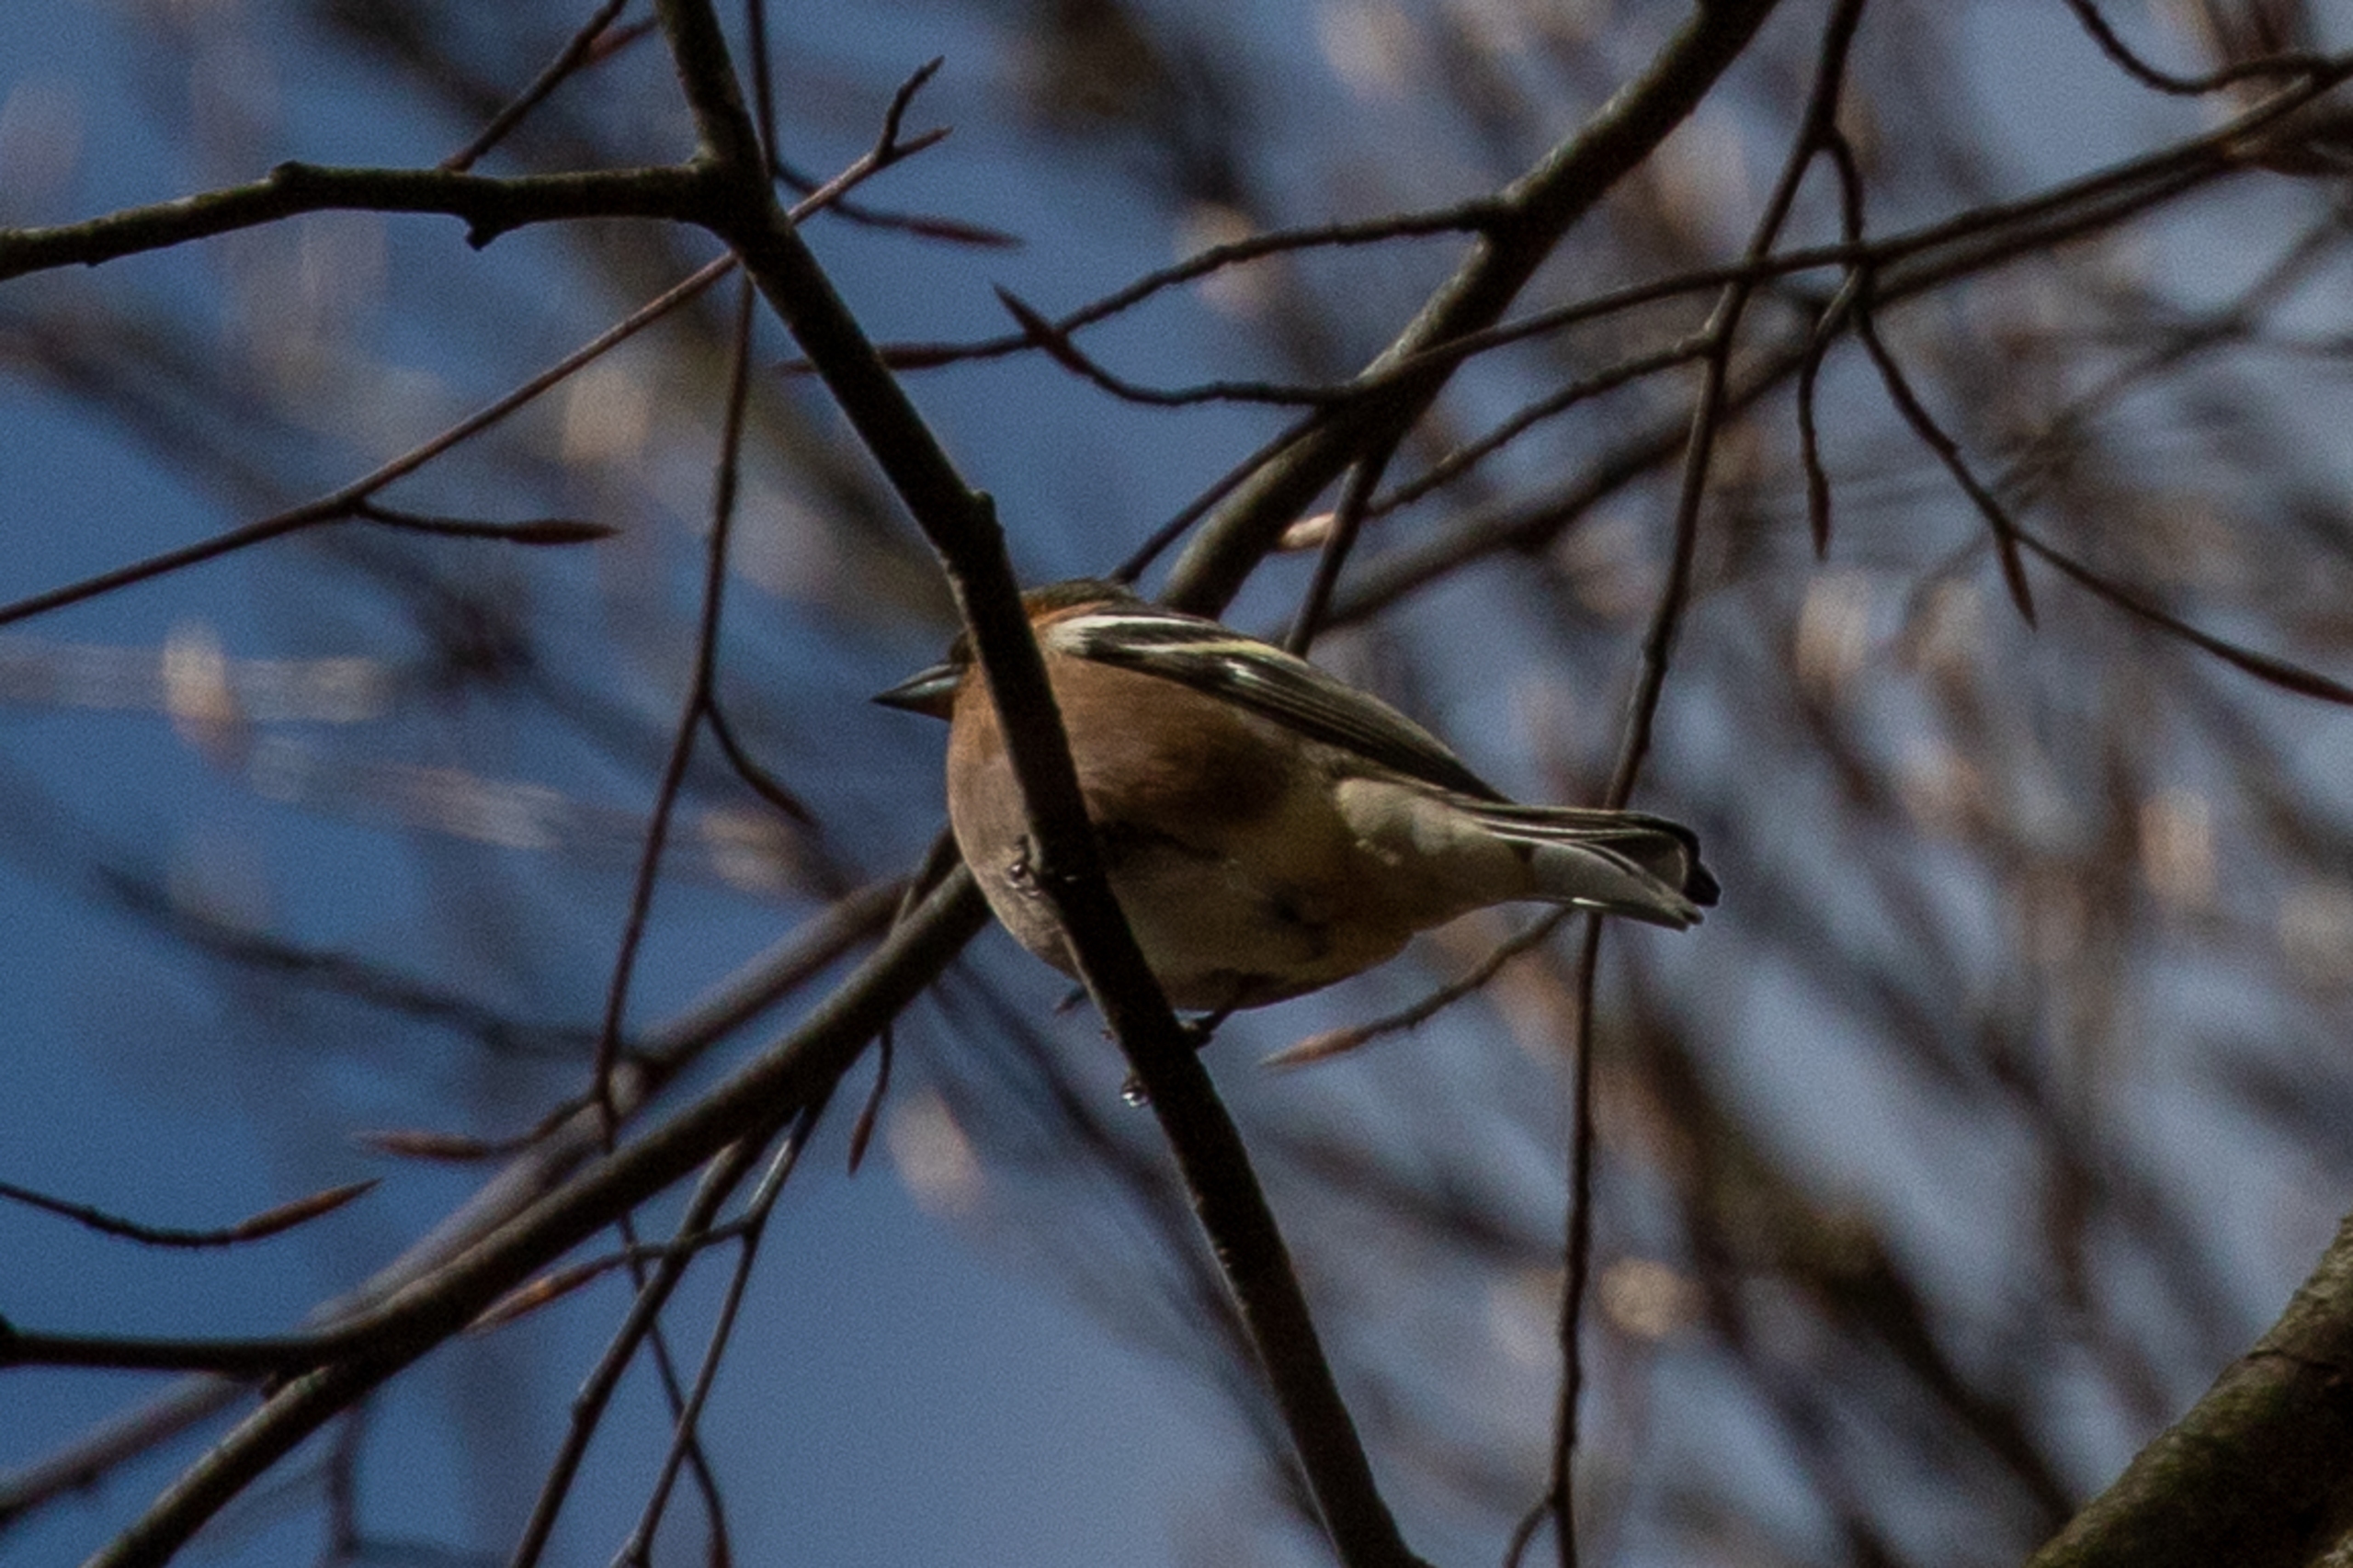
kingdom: Animalia
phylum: Chordata
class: Aves
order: Passeriformes
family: Fringillidae
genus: Fringilla
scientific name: Fringilla coelebs
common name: Bogfinke
